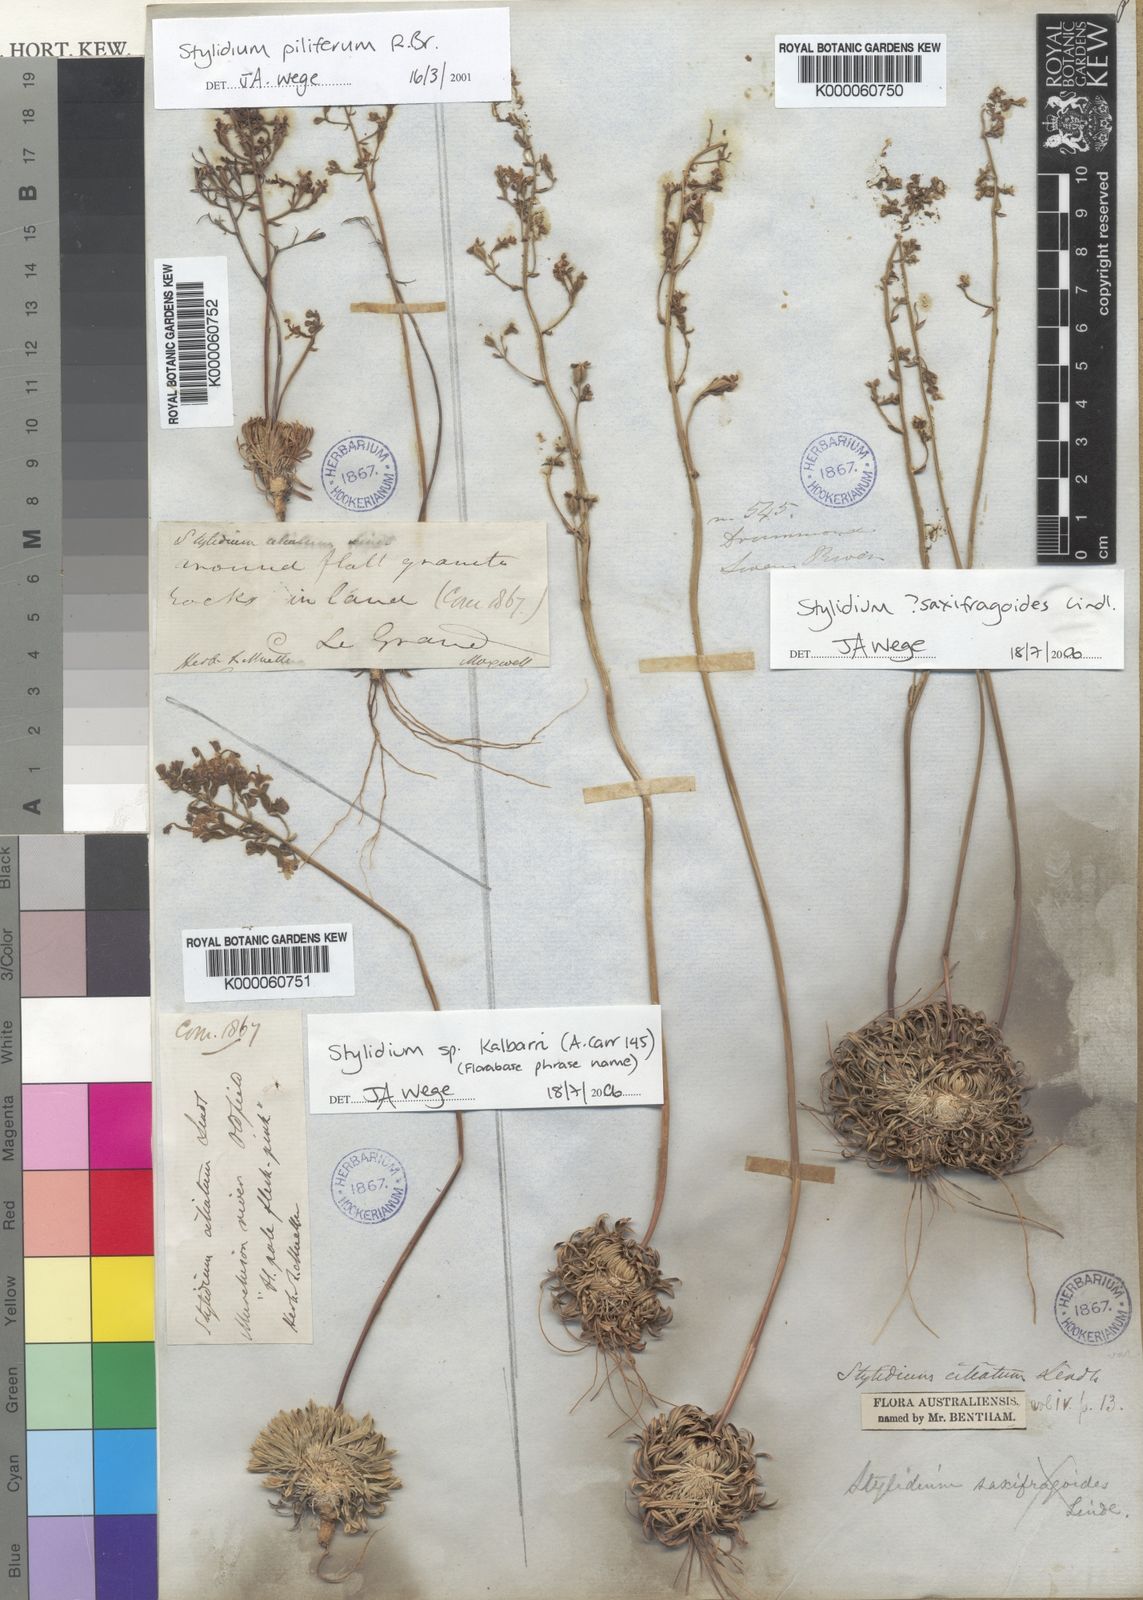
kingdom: Plantae
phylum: Tracheophyta
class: Magnoliopsida
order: Asterales
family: Stylidiaceae
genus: Stylidium
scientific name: Stylidium piliferum
